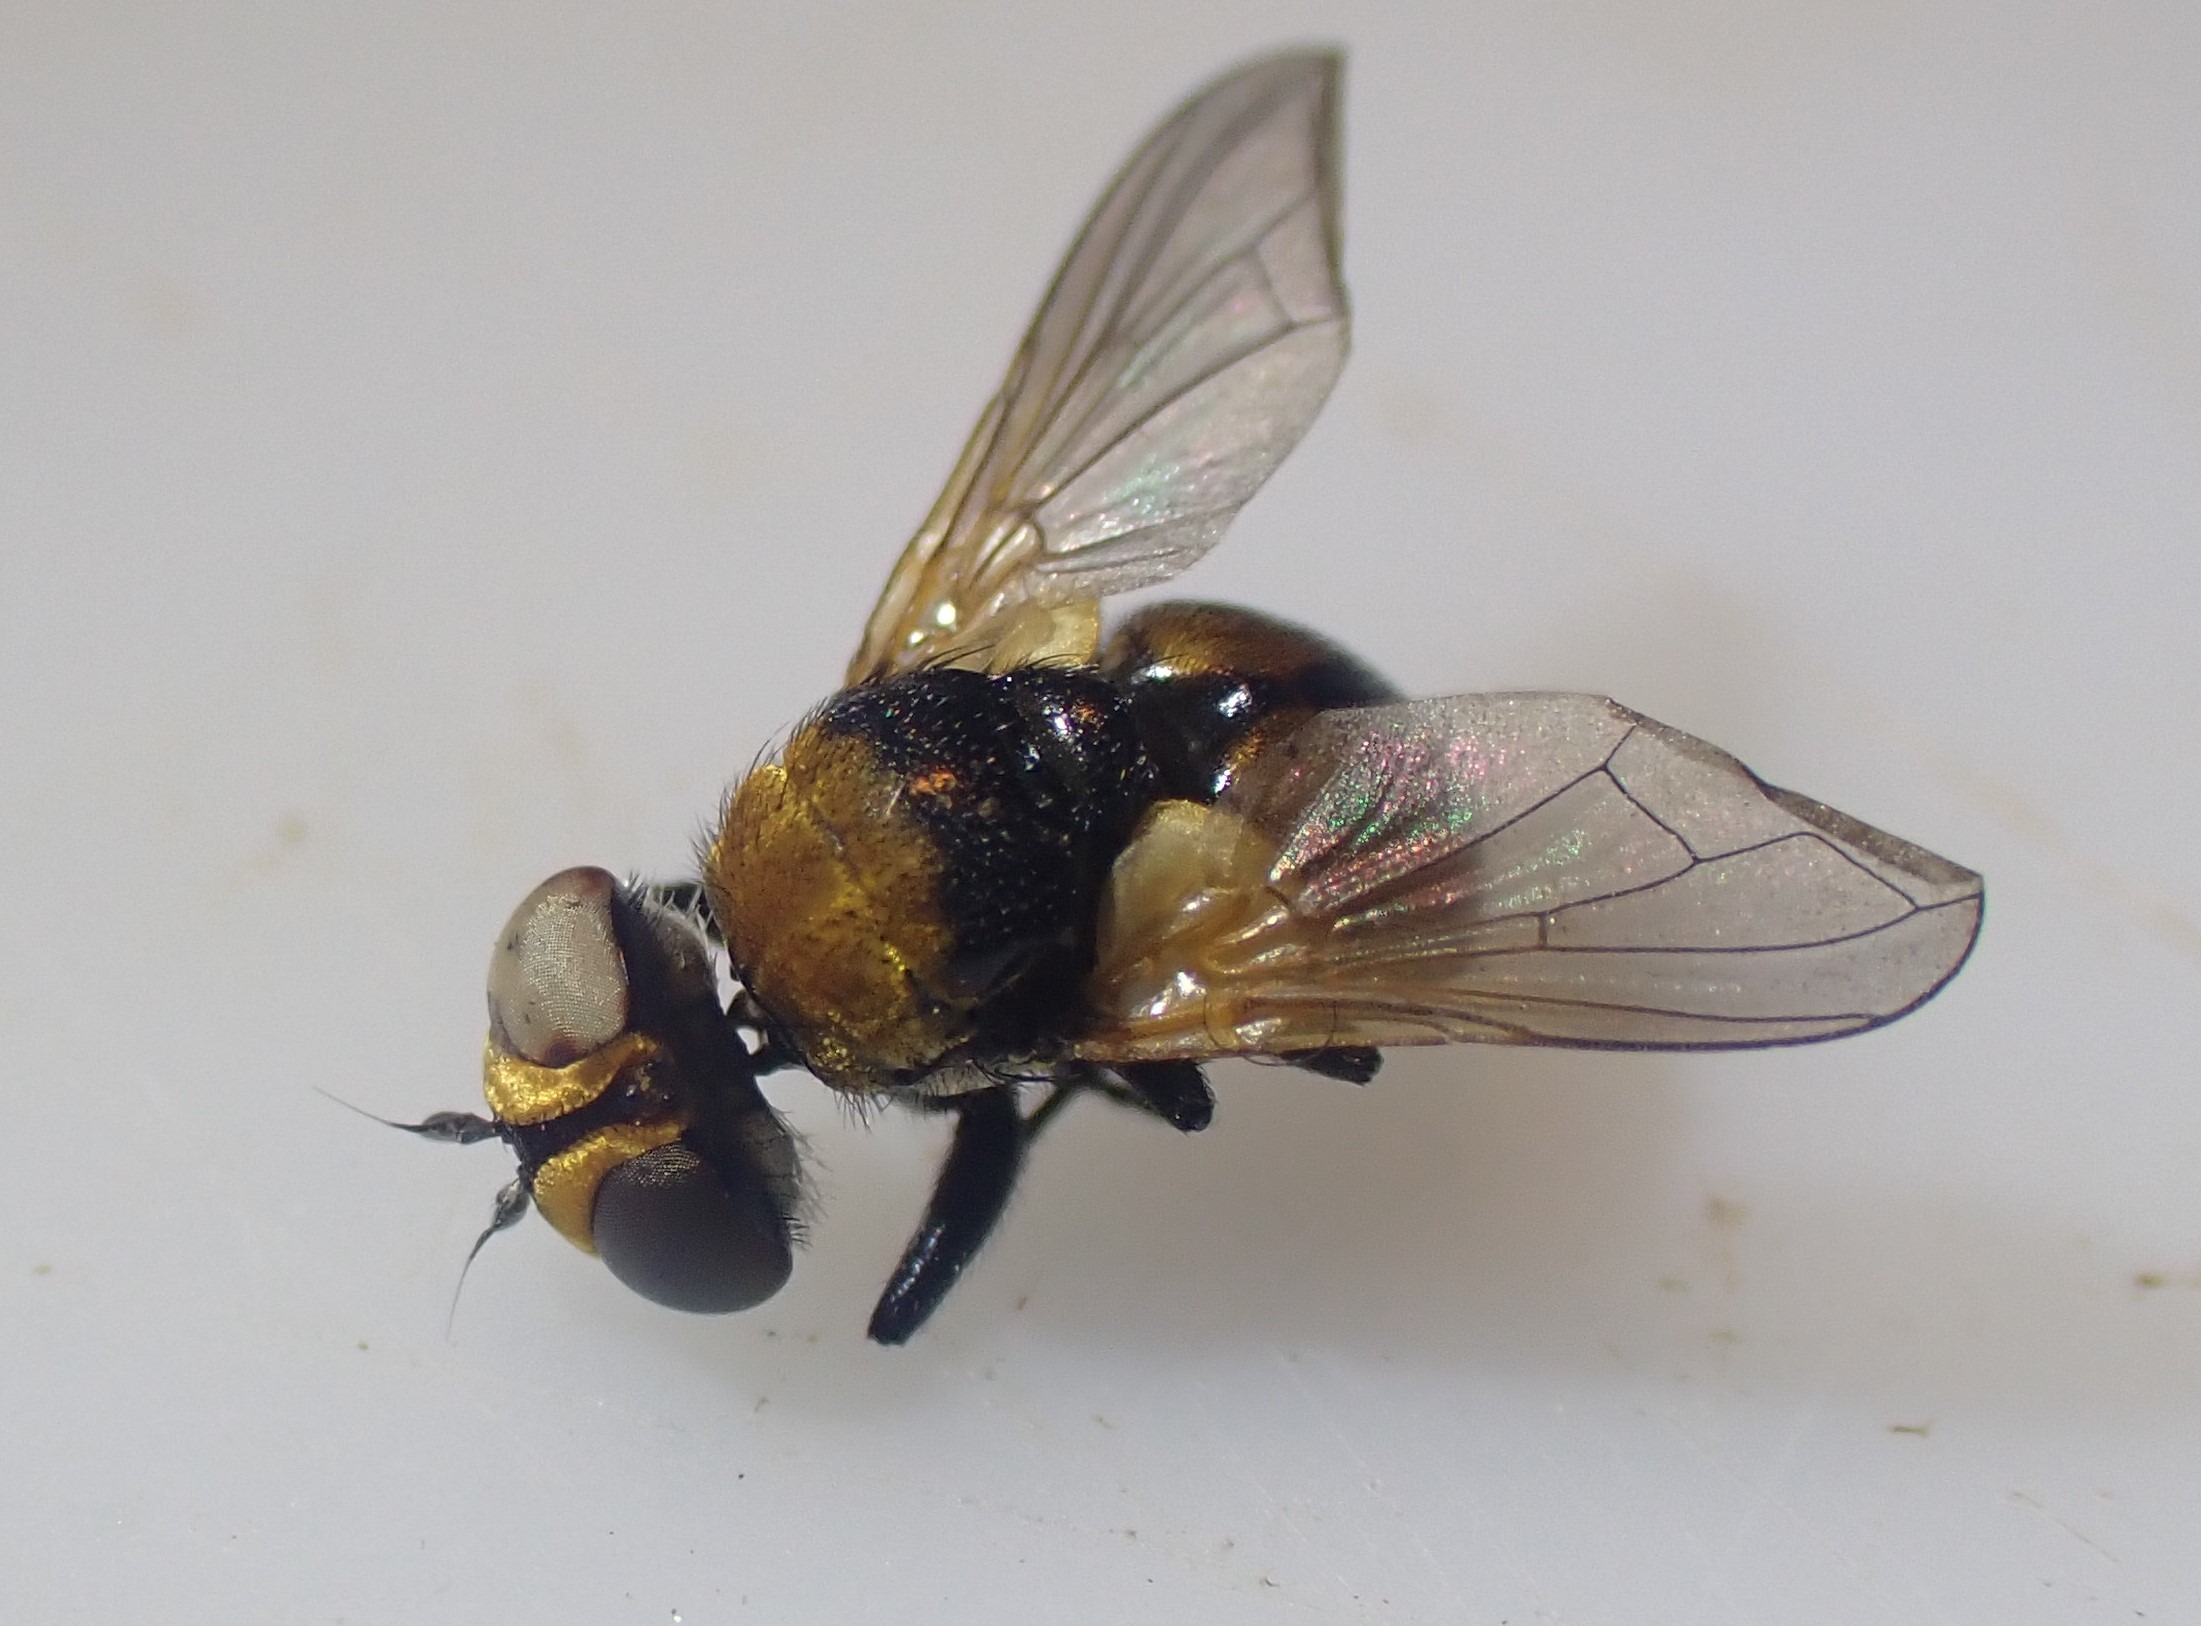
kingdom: Animalia
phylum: Arthropoda
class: Insecta
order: Diptera
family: Tachinidae
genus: Cistogaster
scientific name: Cistogaster globosa
